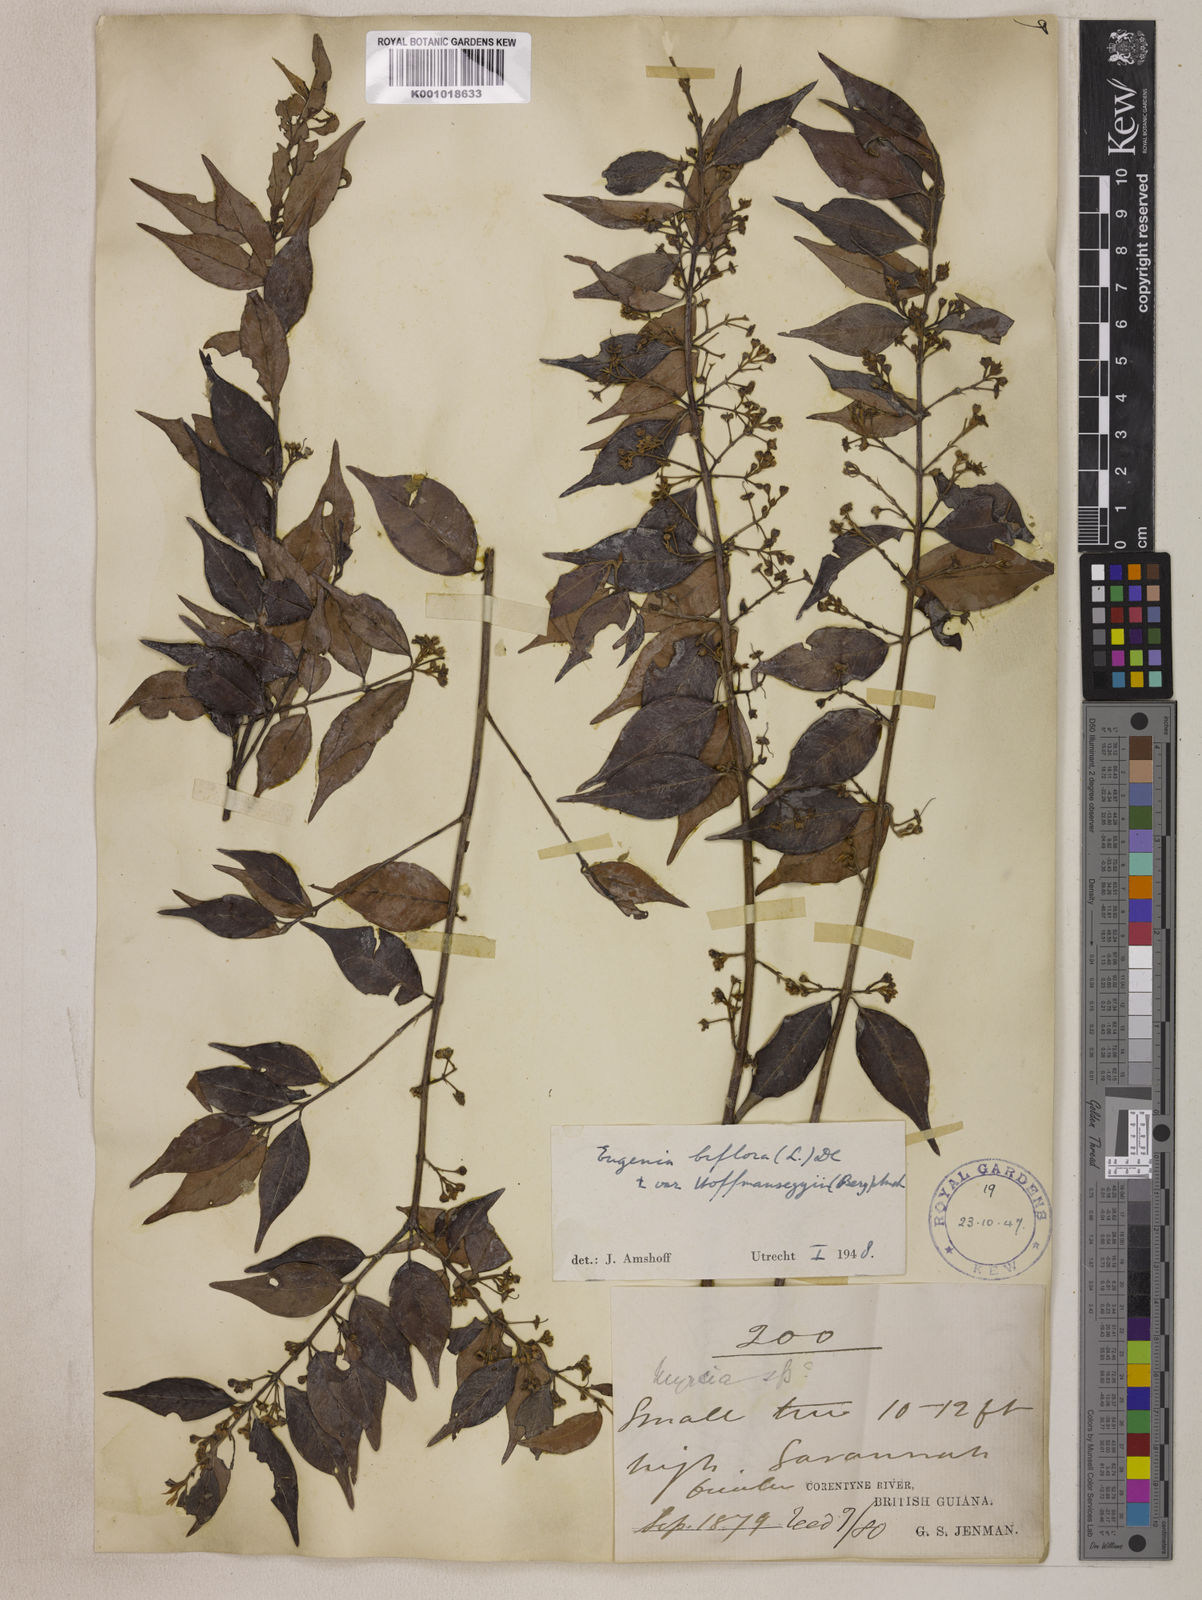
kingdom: Plantae
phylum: Tracheophyta
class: Magnoliopsida
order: Myrtales
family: Myrtaceae
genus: Eugenia
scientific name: Eugenia biflora
